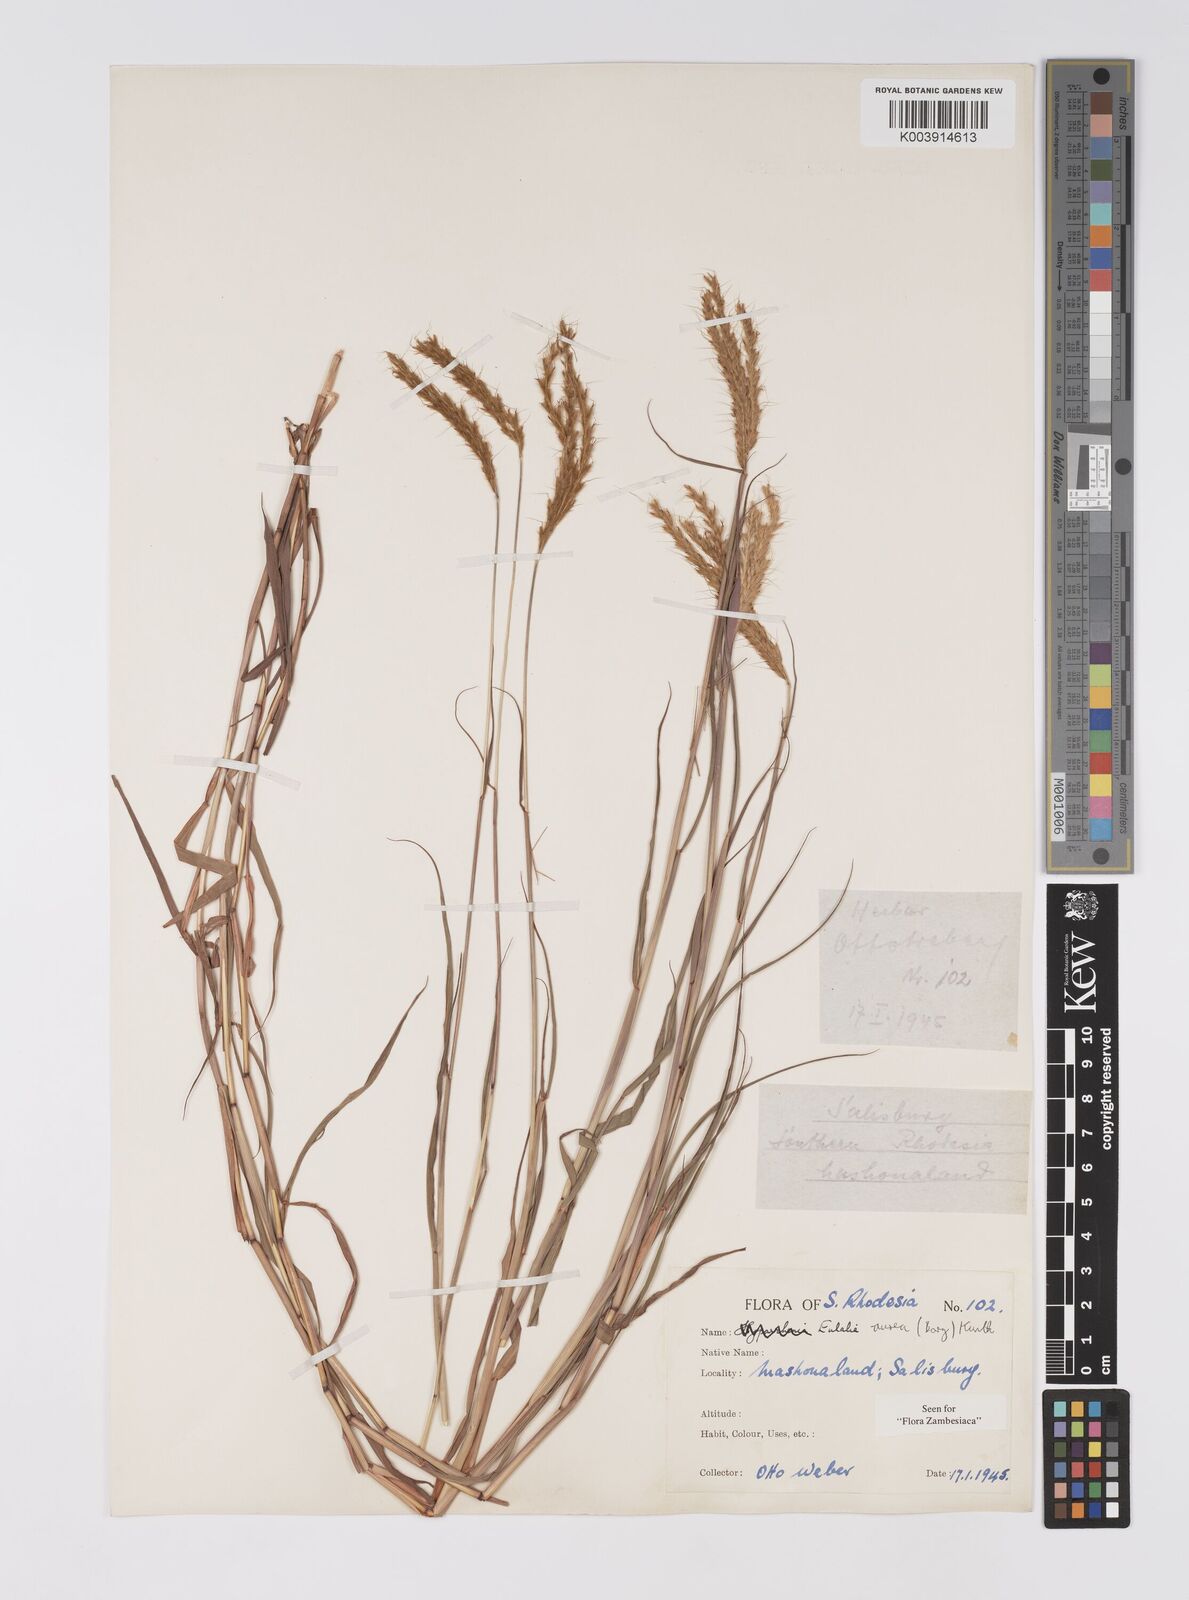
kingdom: Plantae
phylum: Tracheophyta
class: Liliopsida
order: Poales
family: Poaceae
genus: Eulalia
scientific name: Eulalia aurea
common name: Silky browntop
